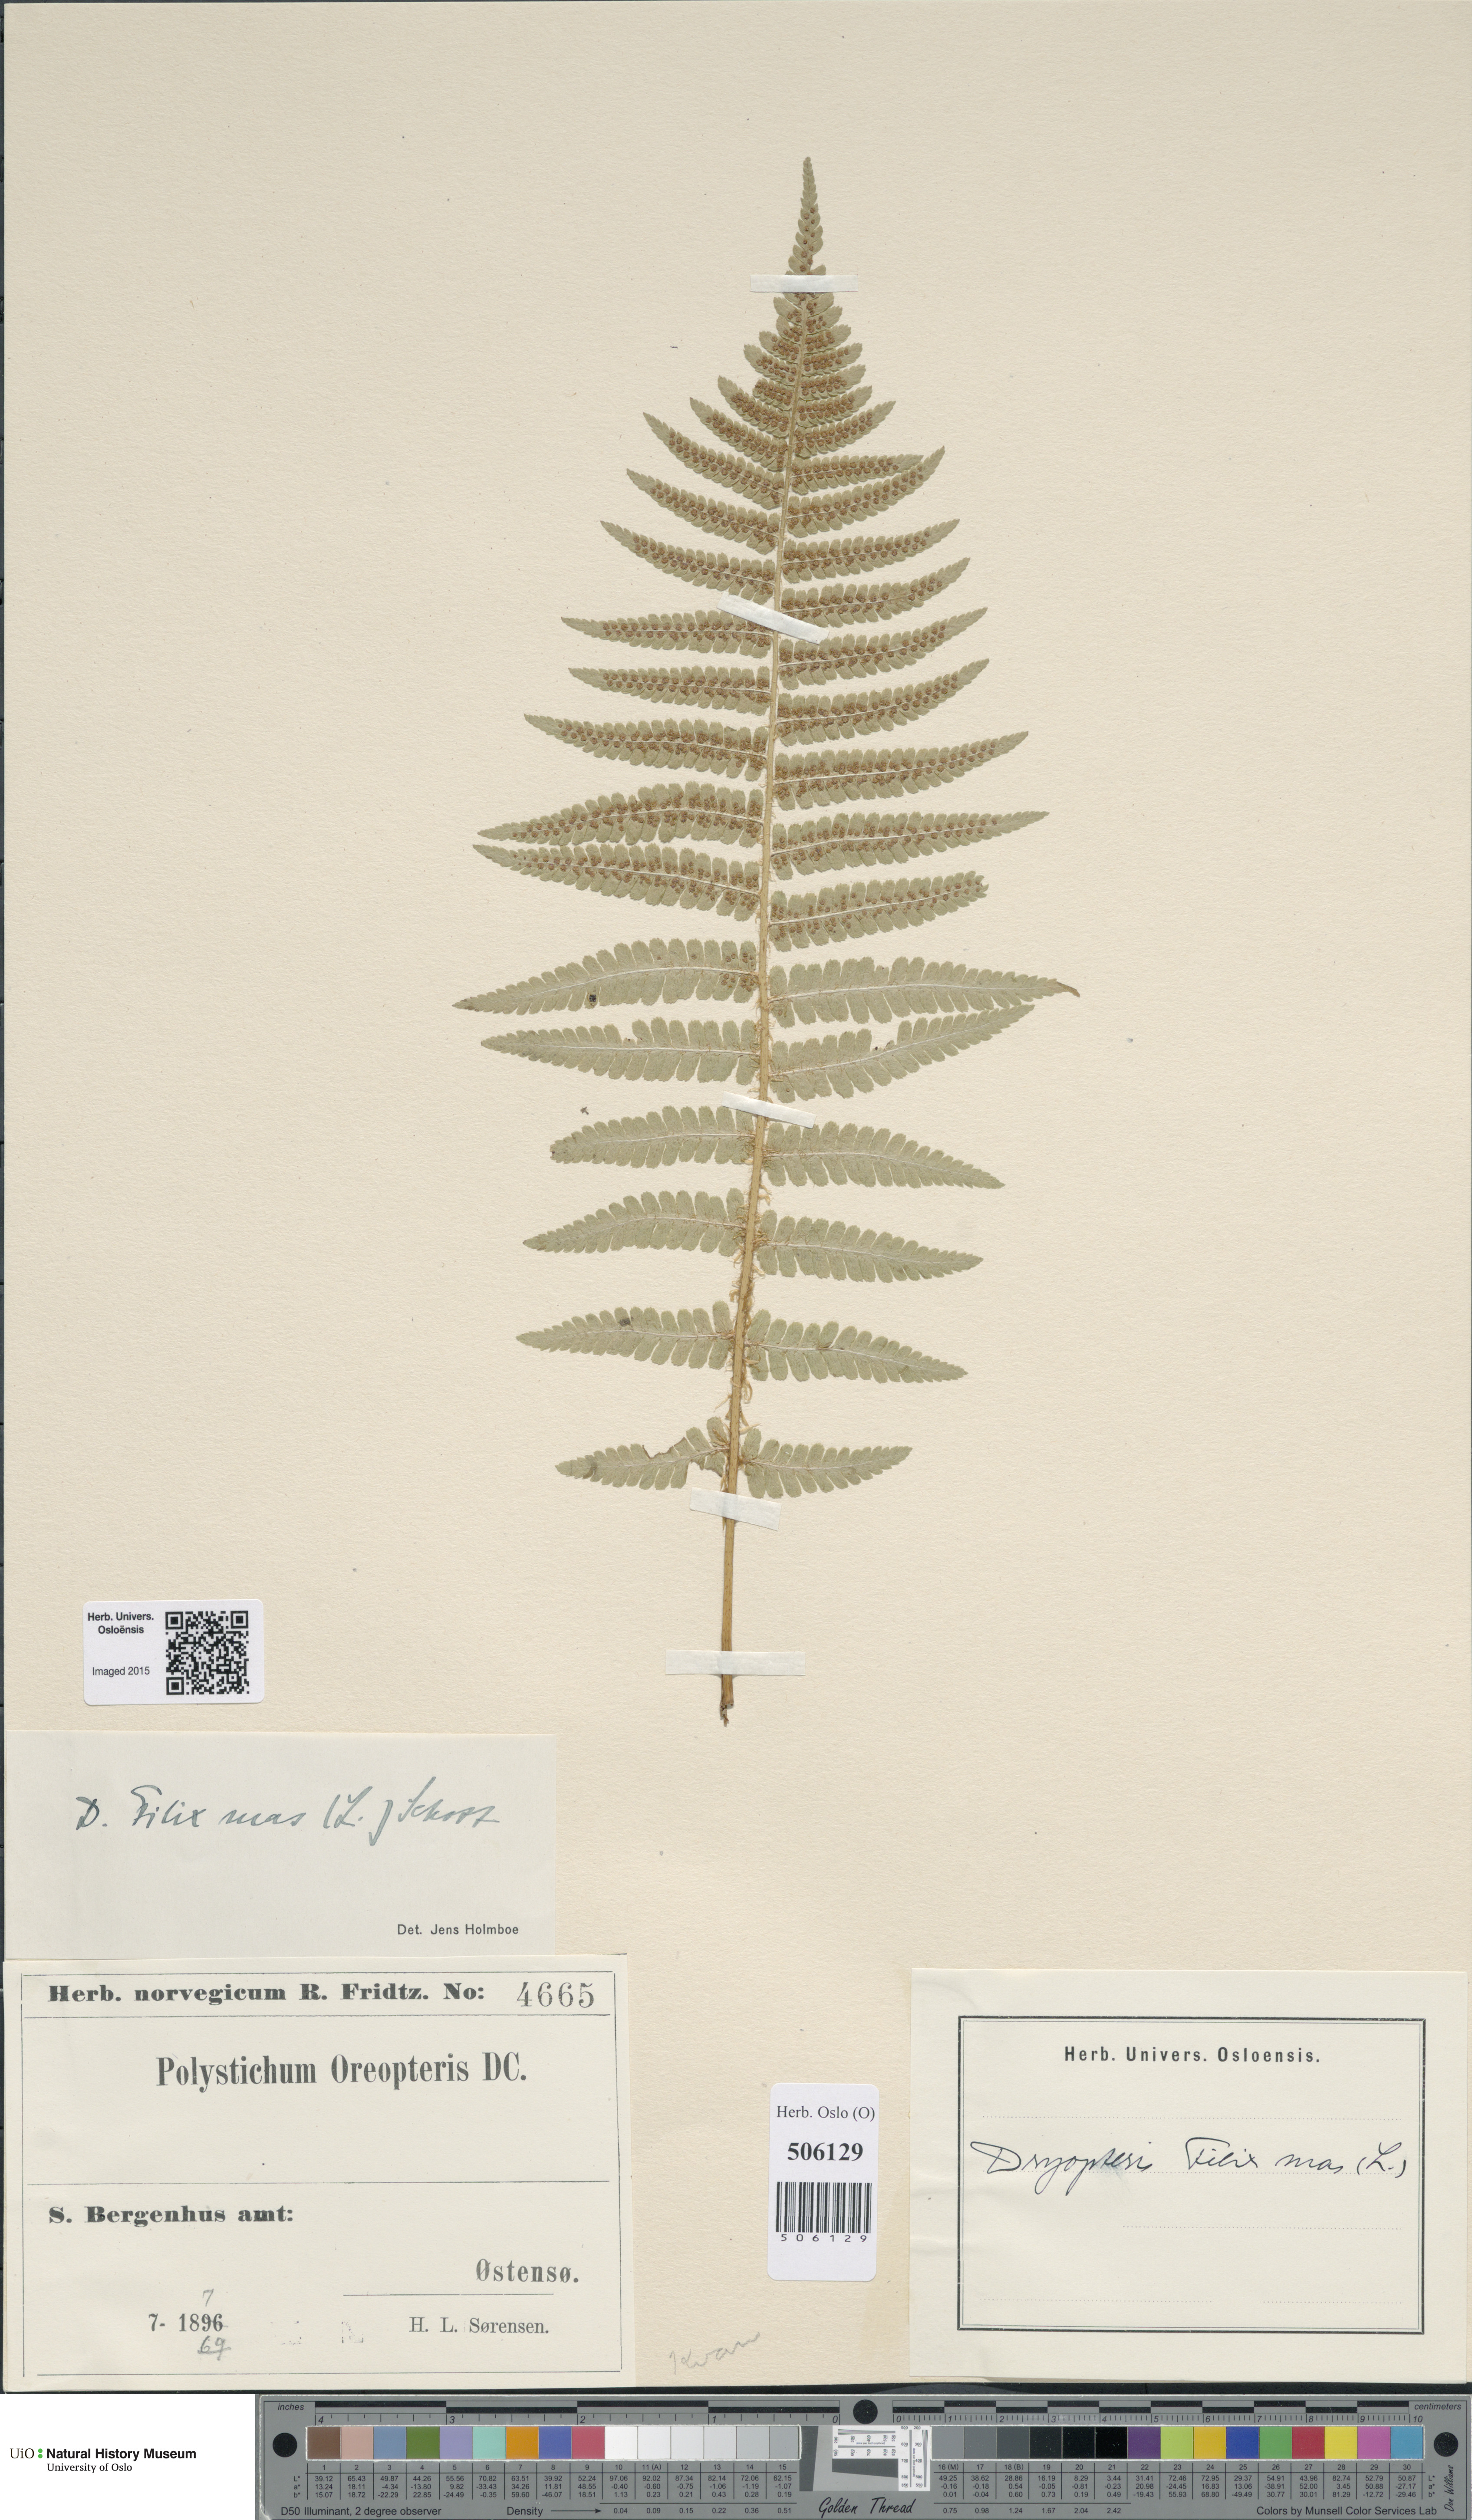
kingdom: Plantae
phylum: Tracheophyta
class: Polypodiopsida
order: Polypodiales
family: Dryopteridaceae
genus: Dryopteris
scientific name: Dryopteris filix-mas
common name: Male fern
